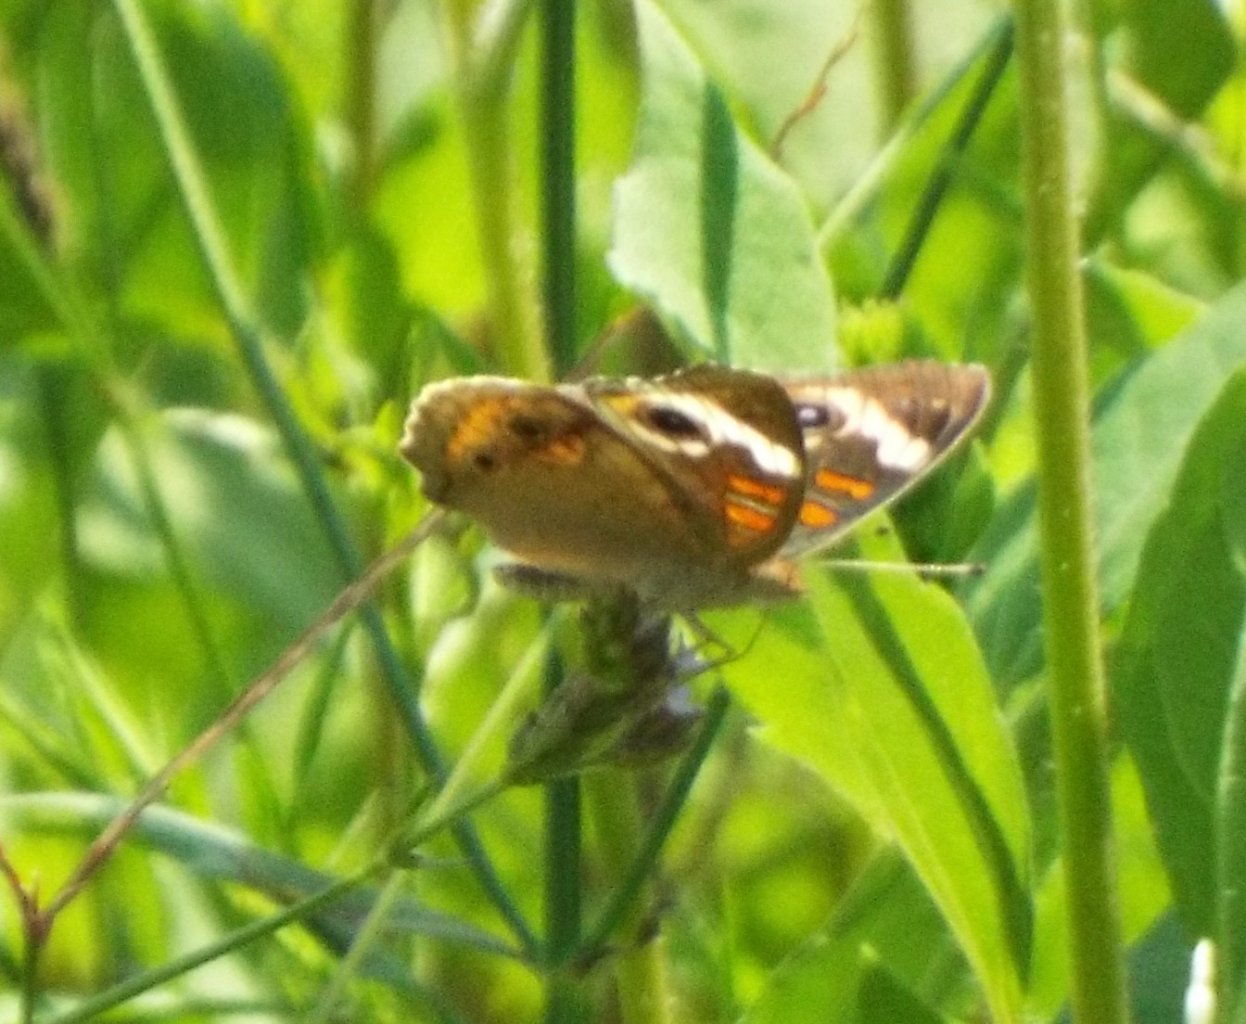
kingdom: Animalia
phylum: Arthropoda
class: Insecta
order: Lepidoptera
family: Nymphalidae
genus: Junonia
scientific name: Junonia coenia
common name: Common Buckeye
